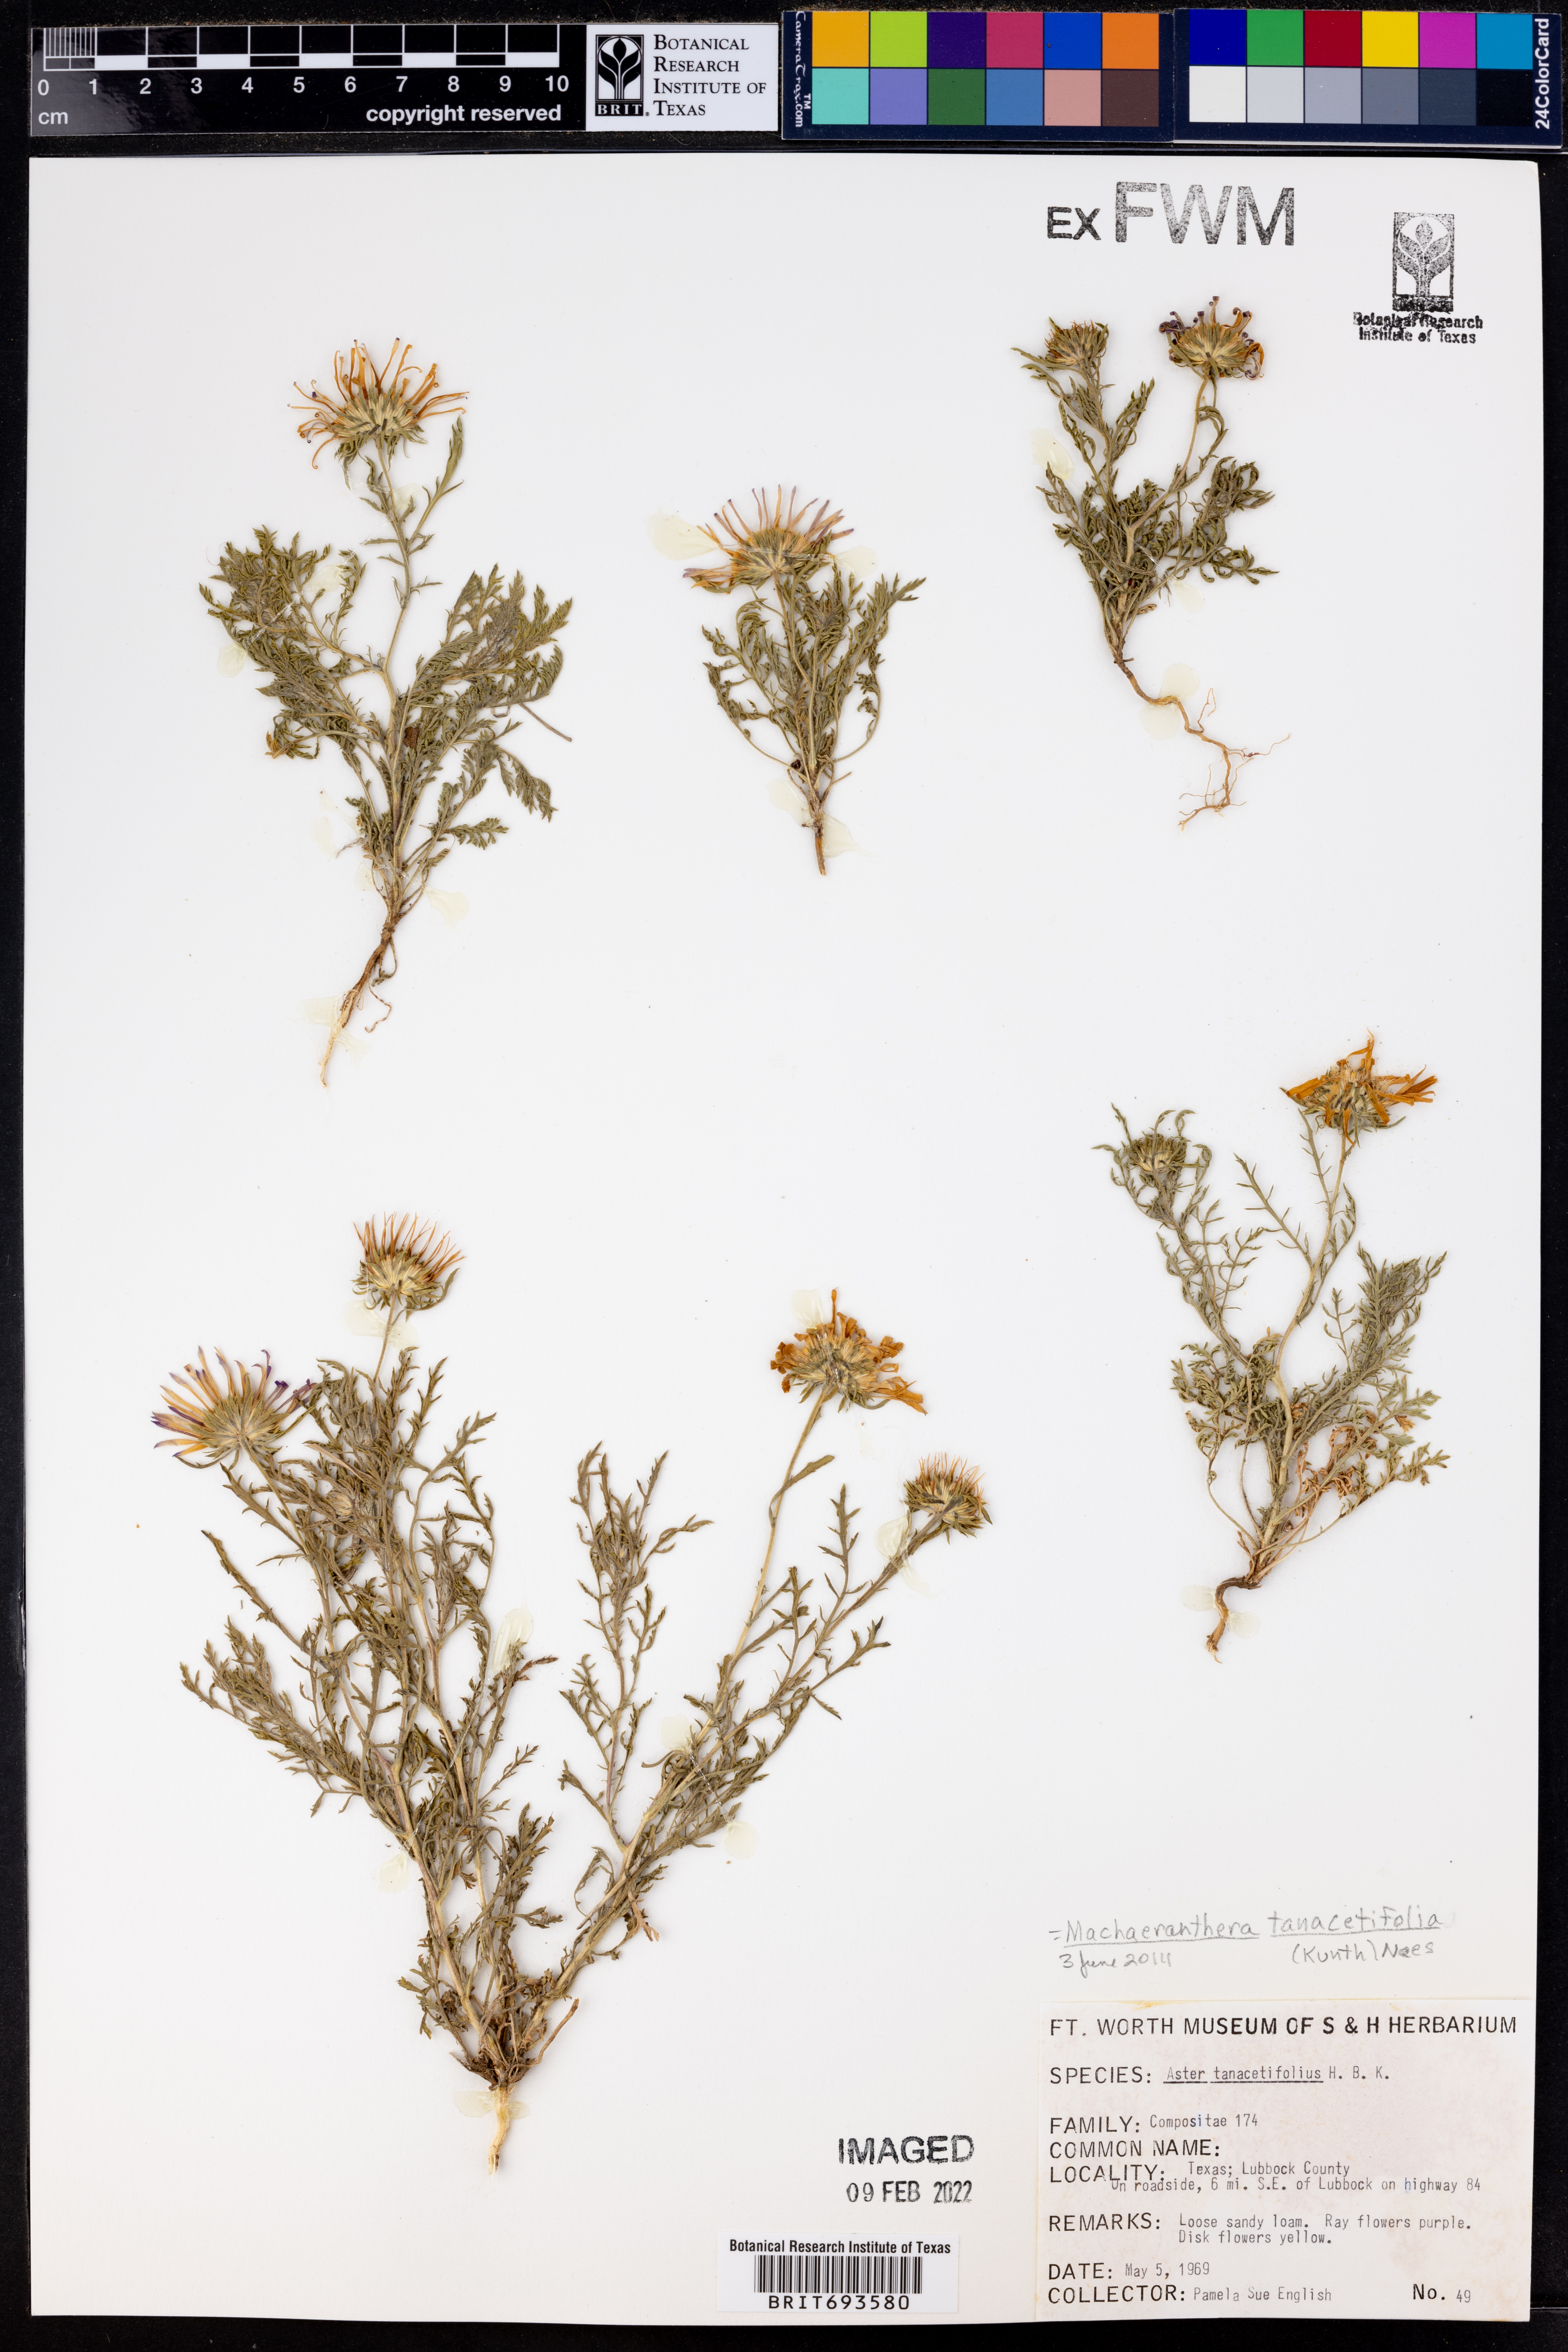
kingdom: Plantae
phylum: Tracheophyta
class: Magnoliopsida
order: Asterales
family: Asteraceae
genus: Machaeranthera
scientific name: Machaeranthera tanacetifolia
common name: Tansy-aster
